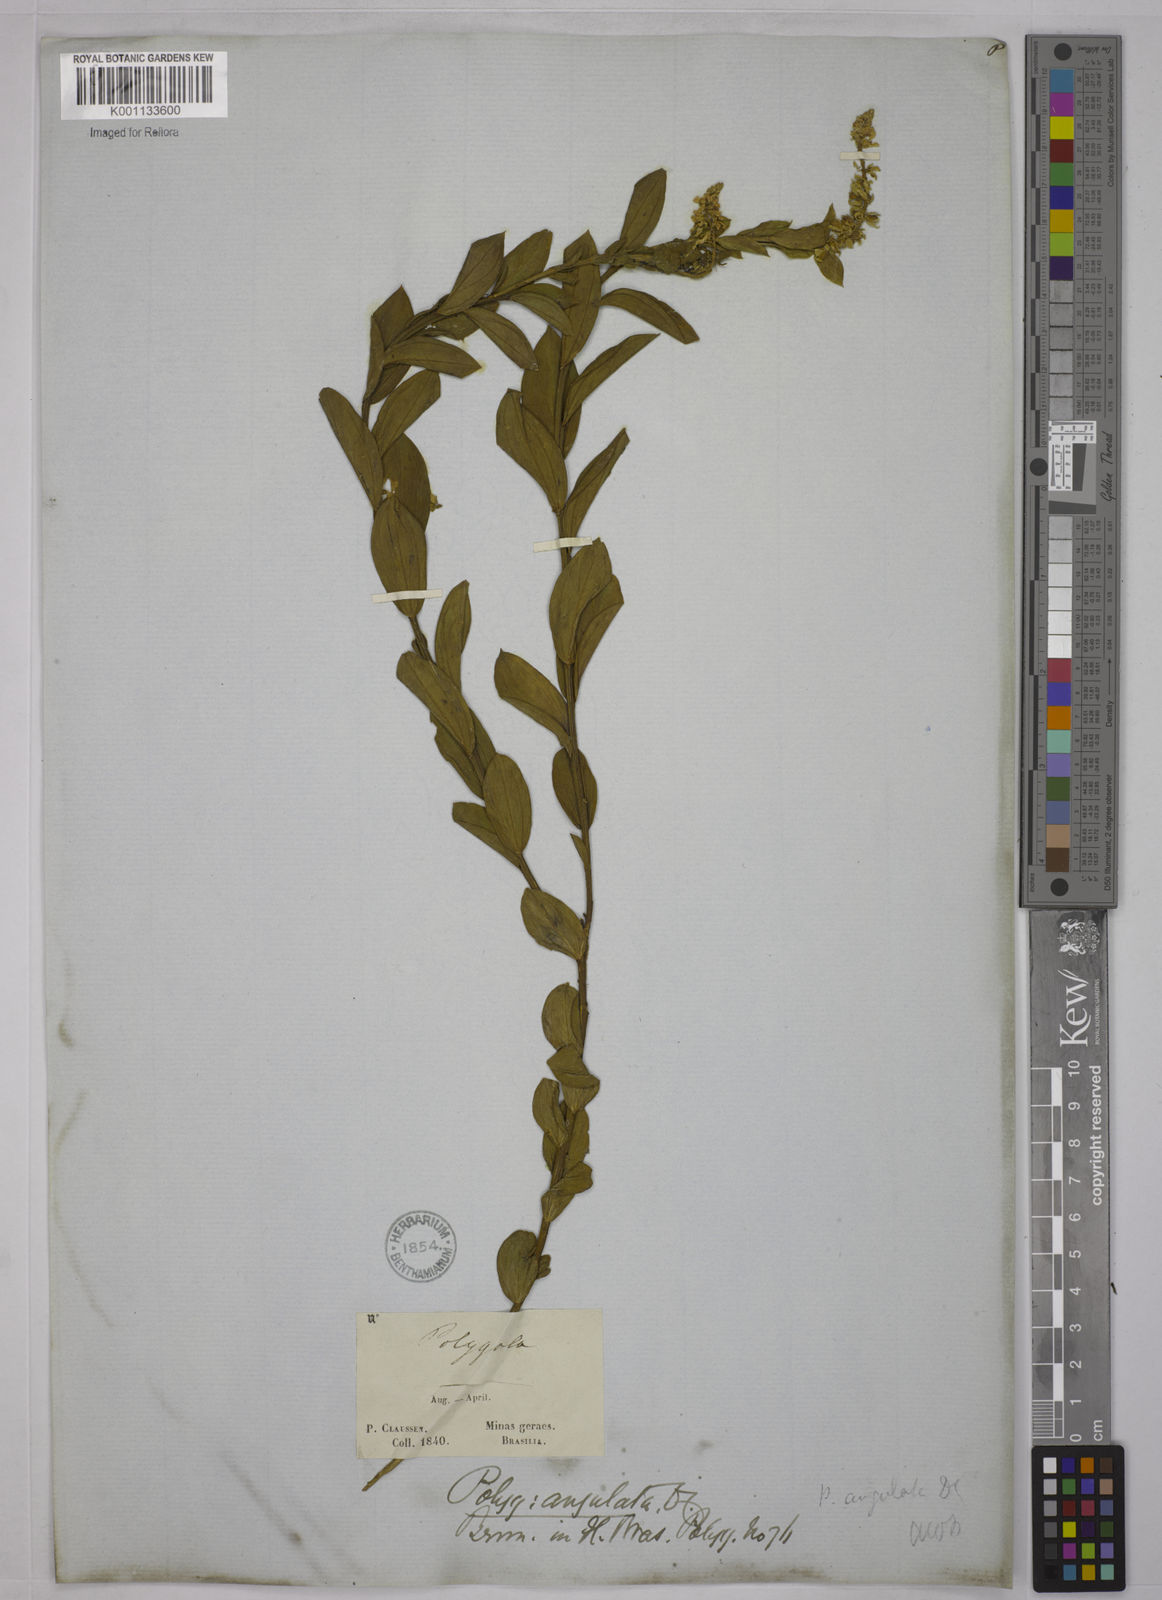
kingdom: Plantae
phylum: Tracheophyta
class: Magnoliopsida
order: Fabales
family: Polygalaceae
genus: Polygala
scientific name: Polygala poaya
